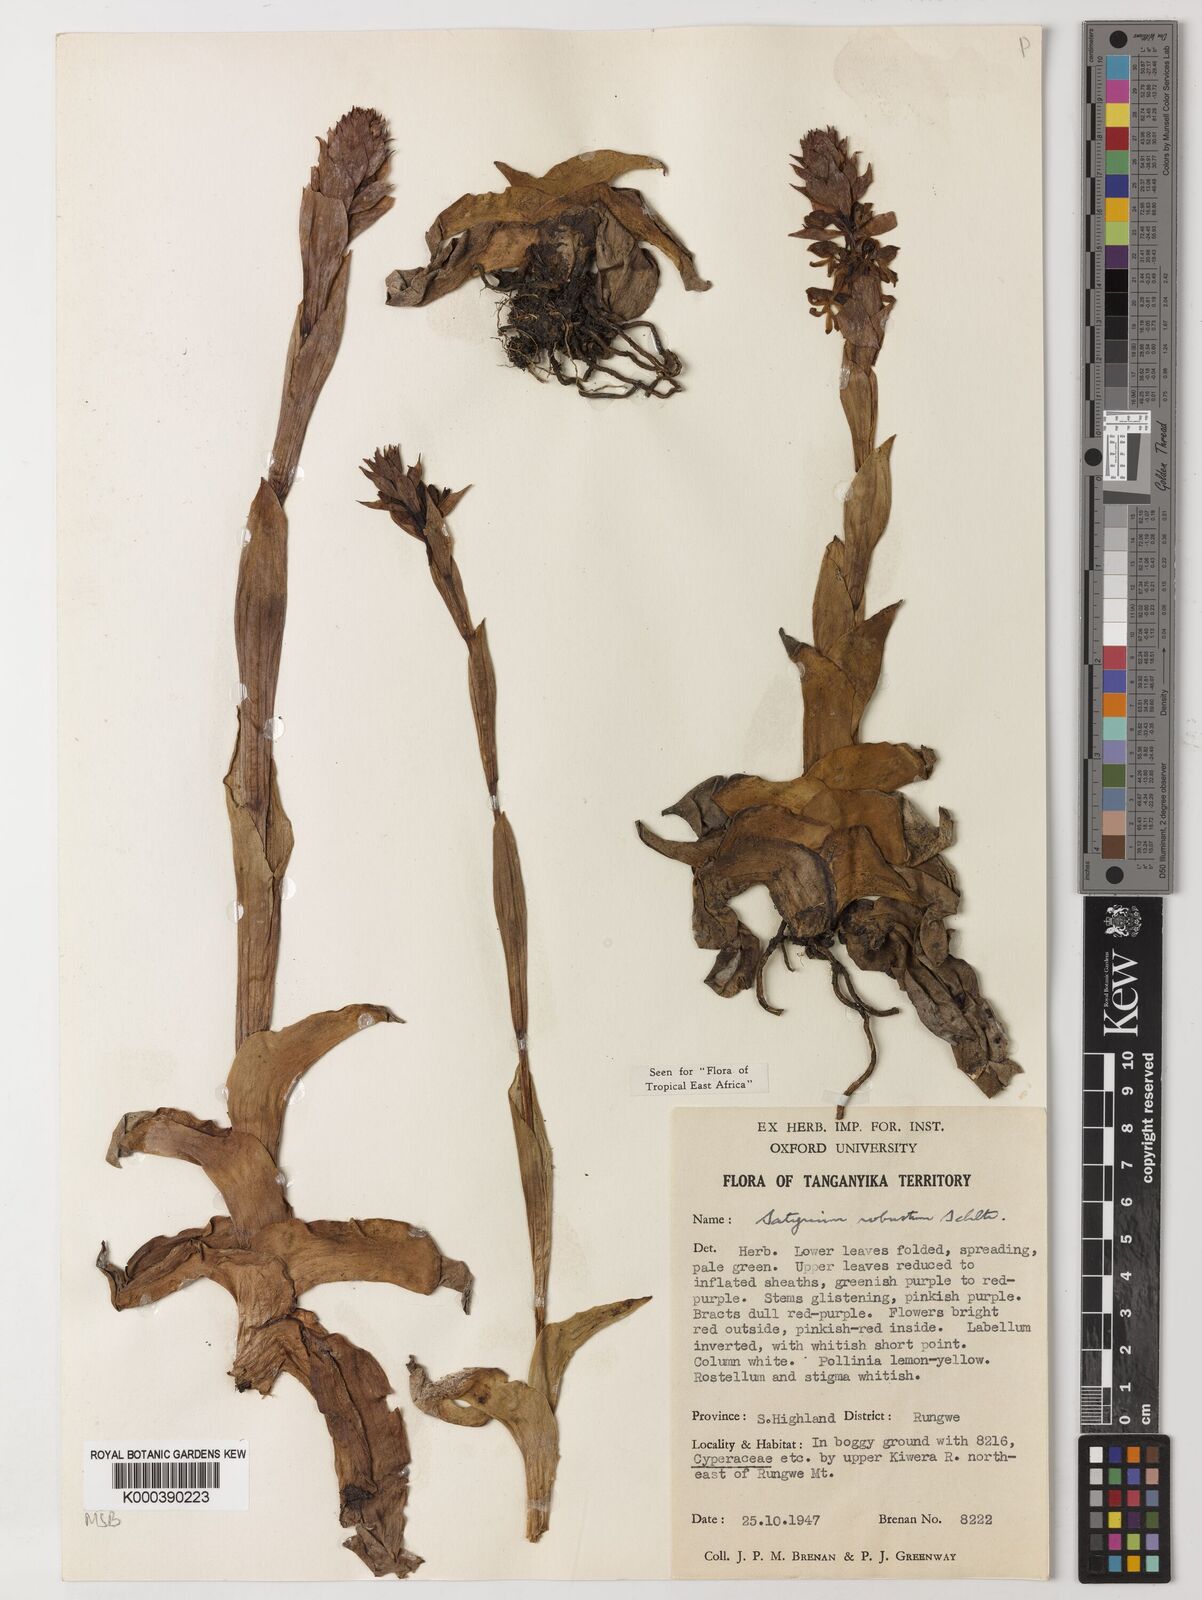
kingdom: Plantae
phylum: Tracheophyta
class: Liliopsida
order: Asparagales
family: Orchidaceae
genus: Satyrium
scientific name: Satyrium robustum
